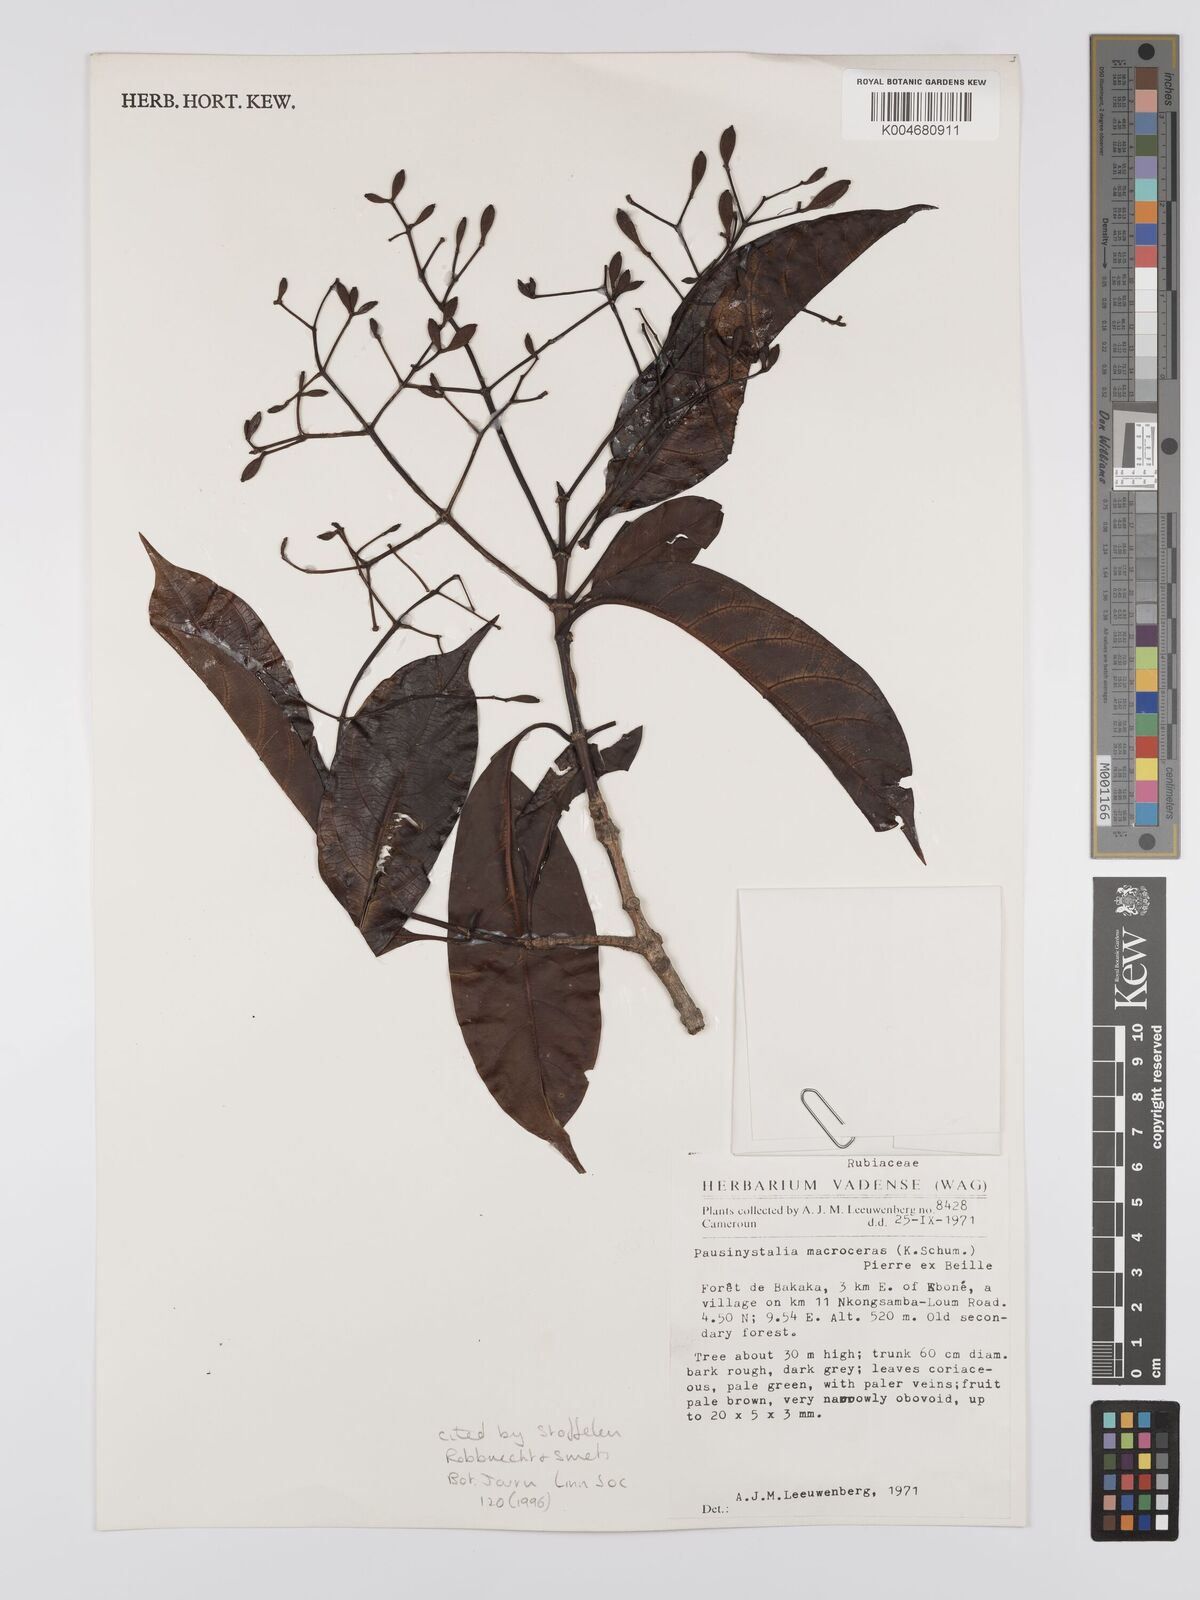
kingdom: Plantae
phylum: Tracheophyta
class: Magnoliopsida
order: Gentianales
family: Rubiaceae
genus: Corynanthe
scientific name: Corynanthe macroceras
